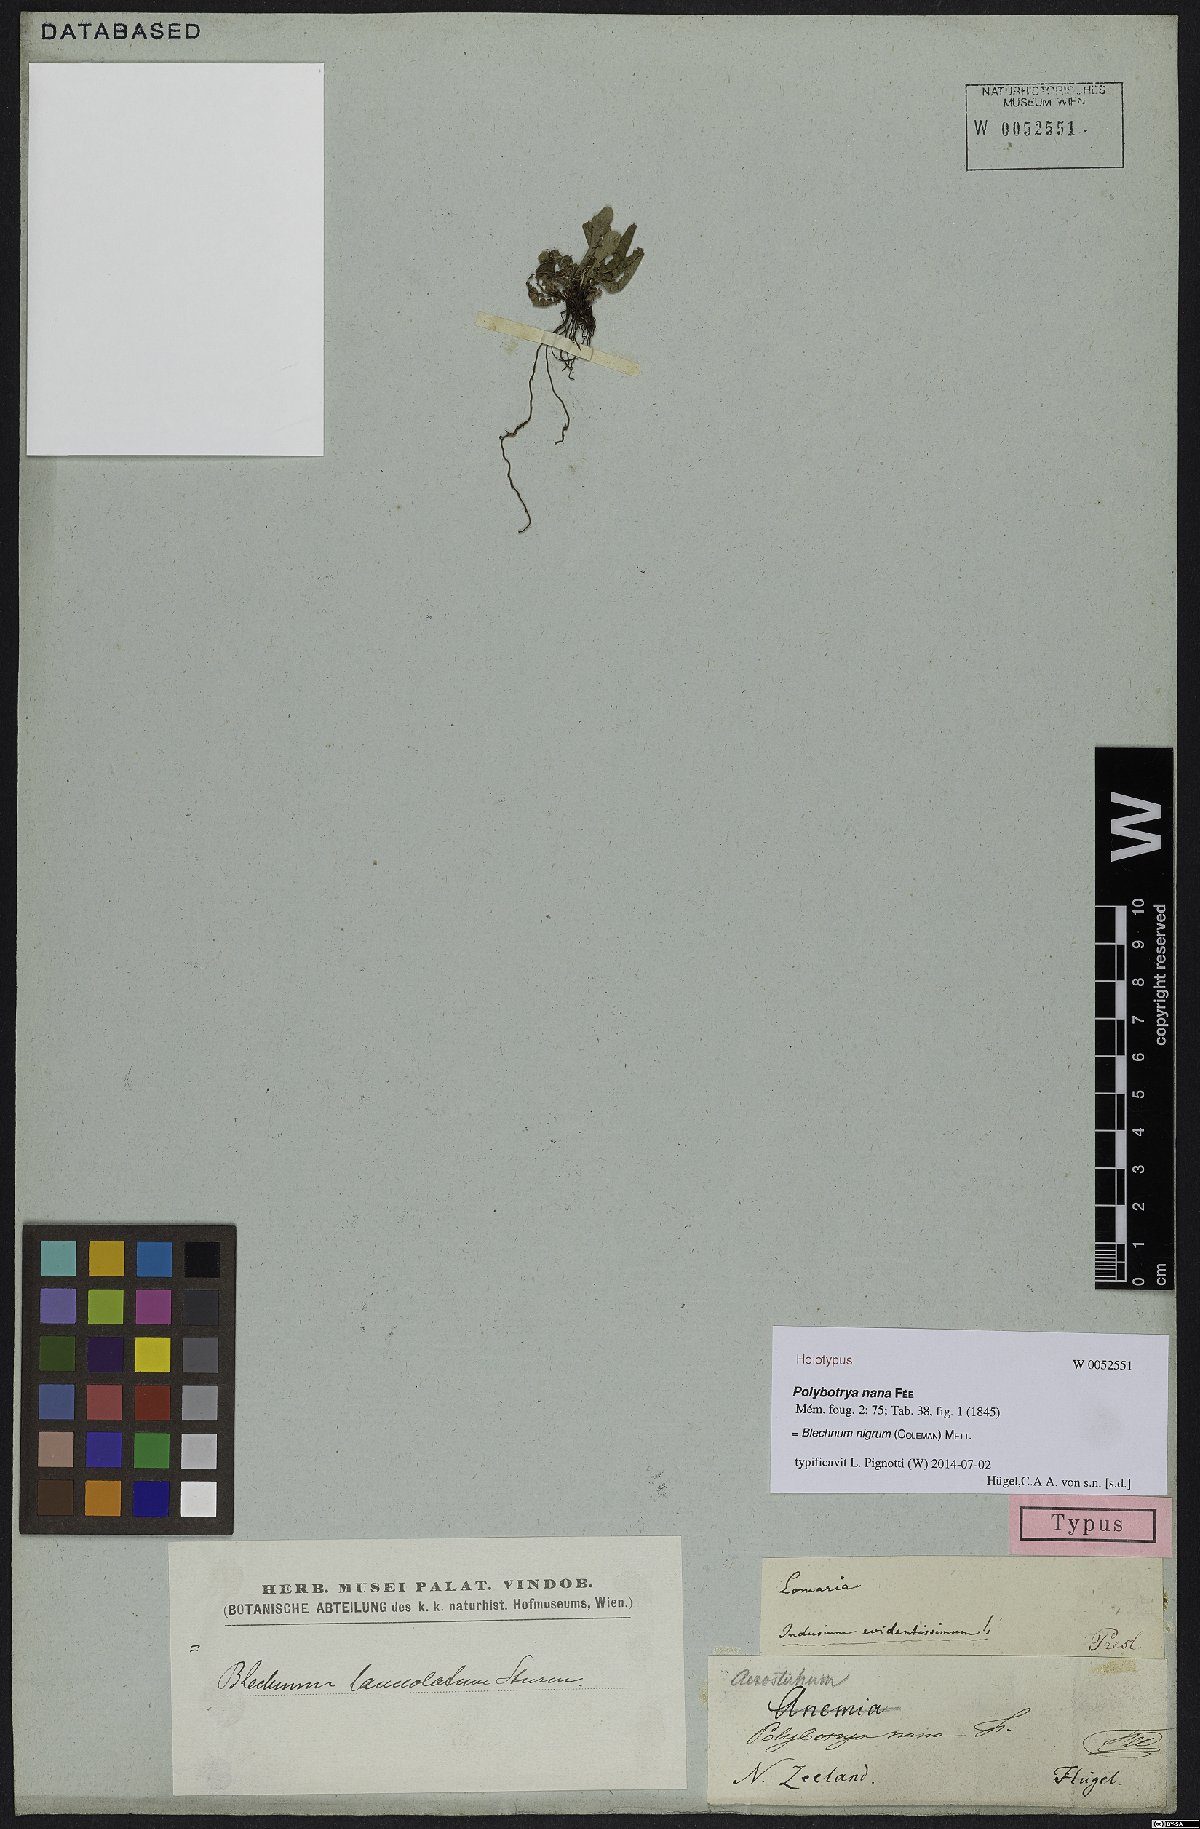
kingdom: Plantae
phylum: Tracheophyta
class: Polypodiopsida
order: Polypodiales
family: Blechnaceae
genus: Cranfillia
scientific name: Cranfillia nigra
